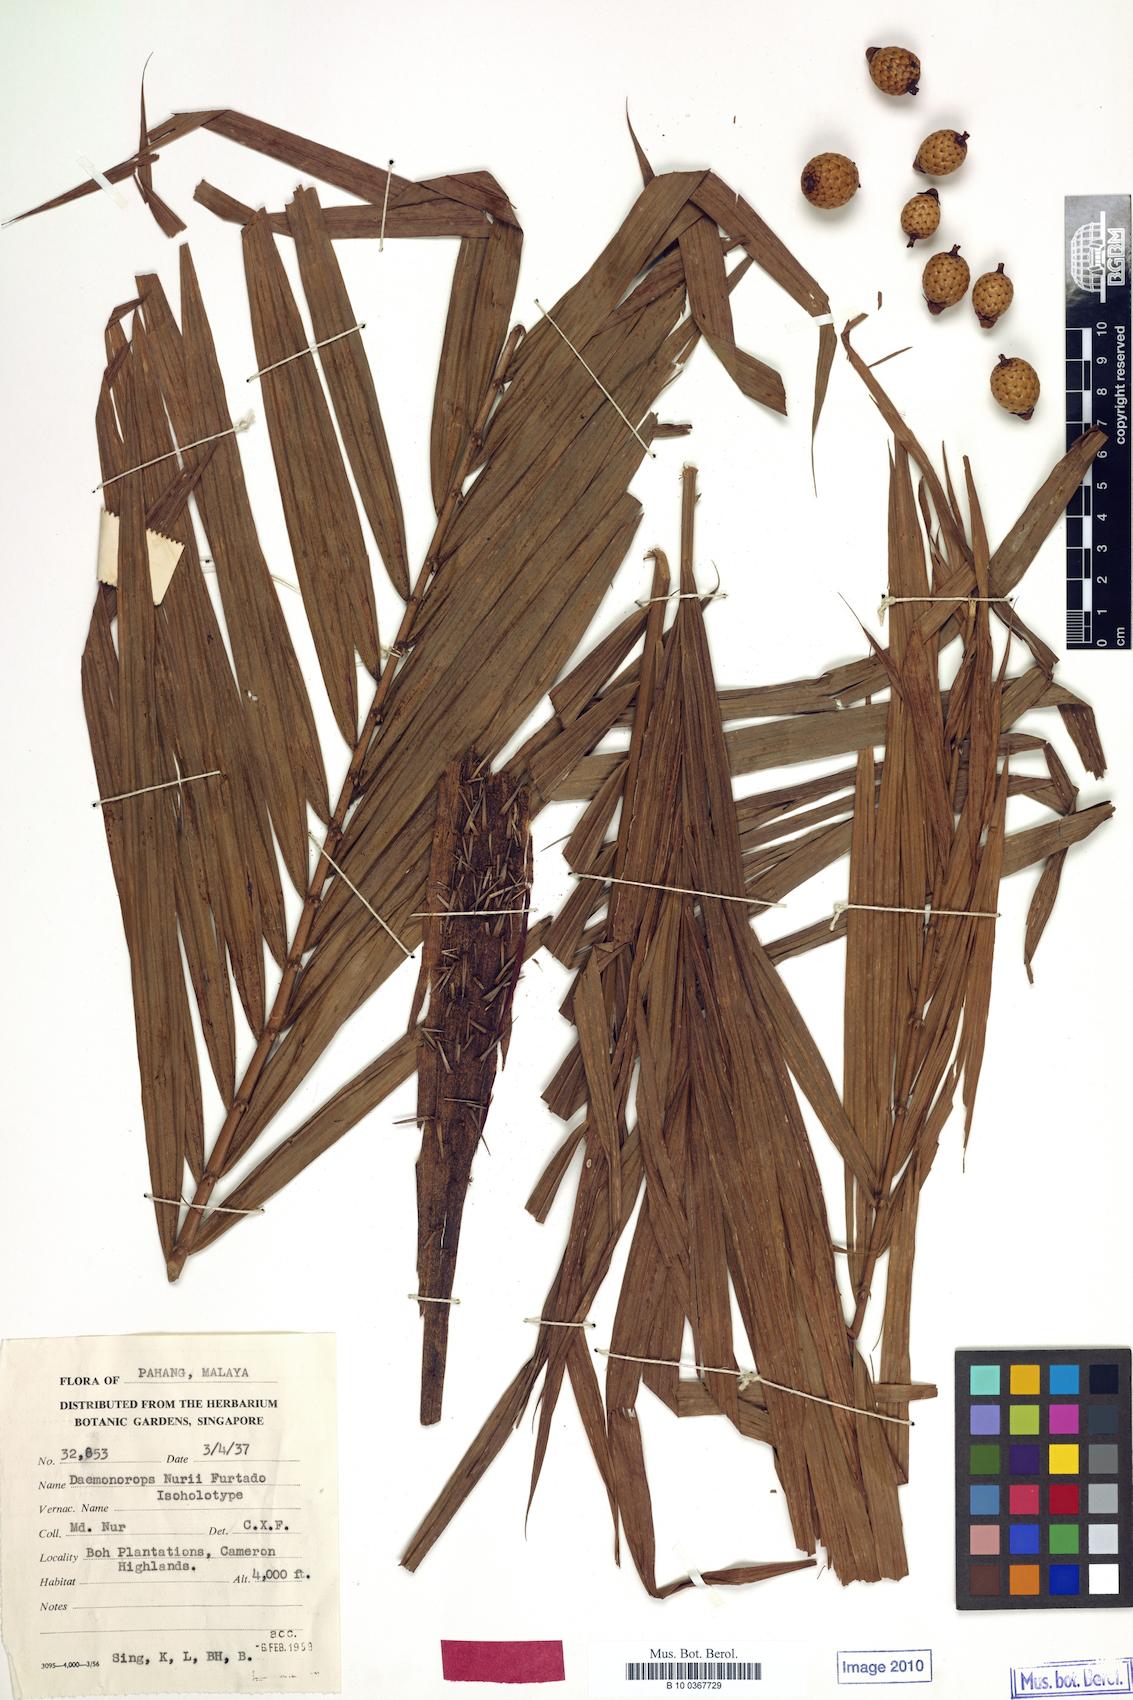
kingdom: Plantae
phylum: Tracheophyta
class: Liliopsida
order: Arecales
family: Arecaceae
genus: Calamus
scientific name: Calamus melanochaetes
